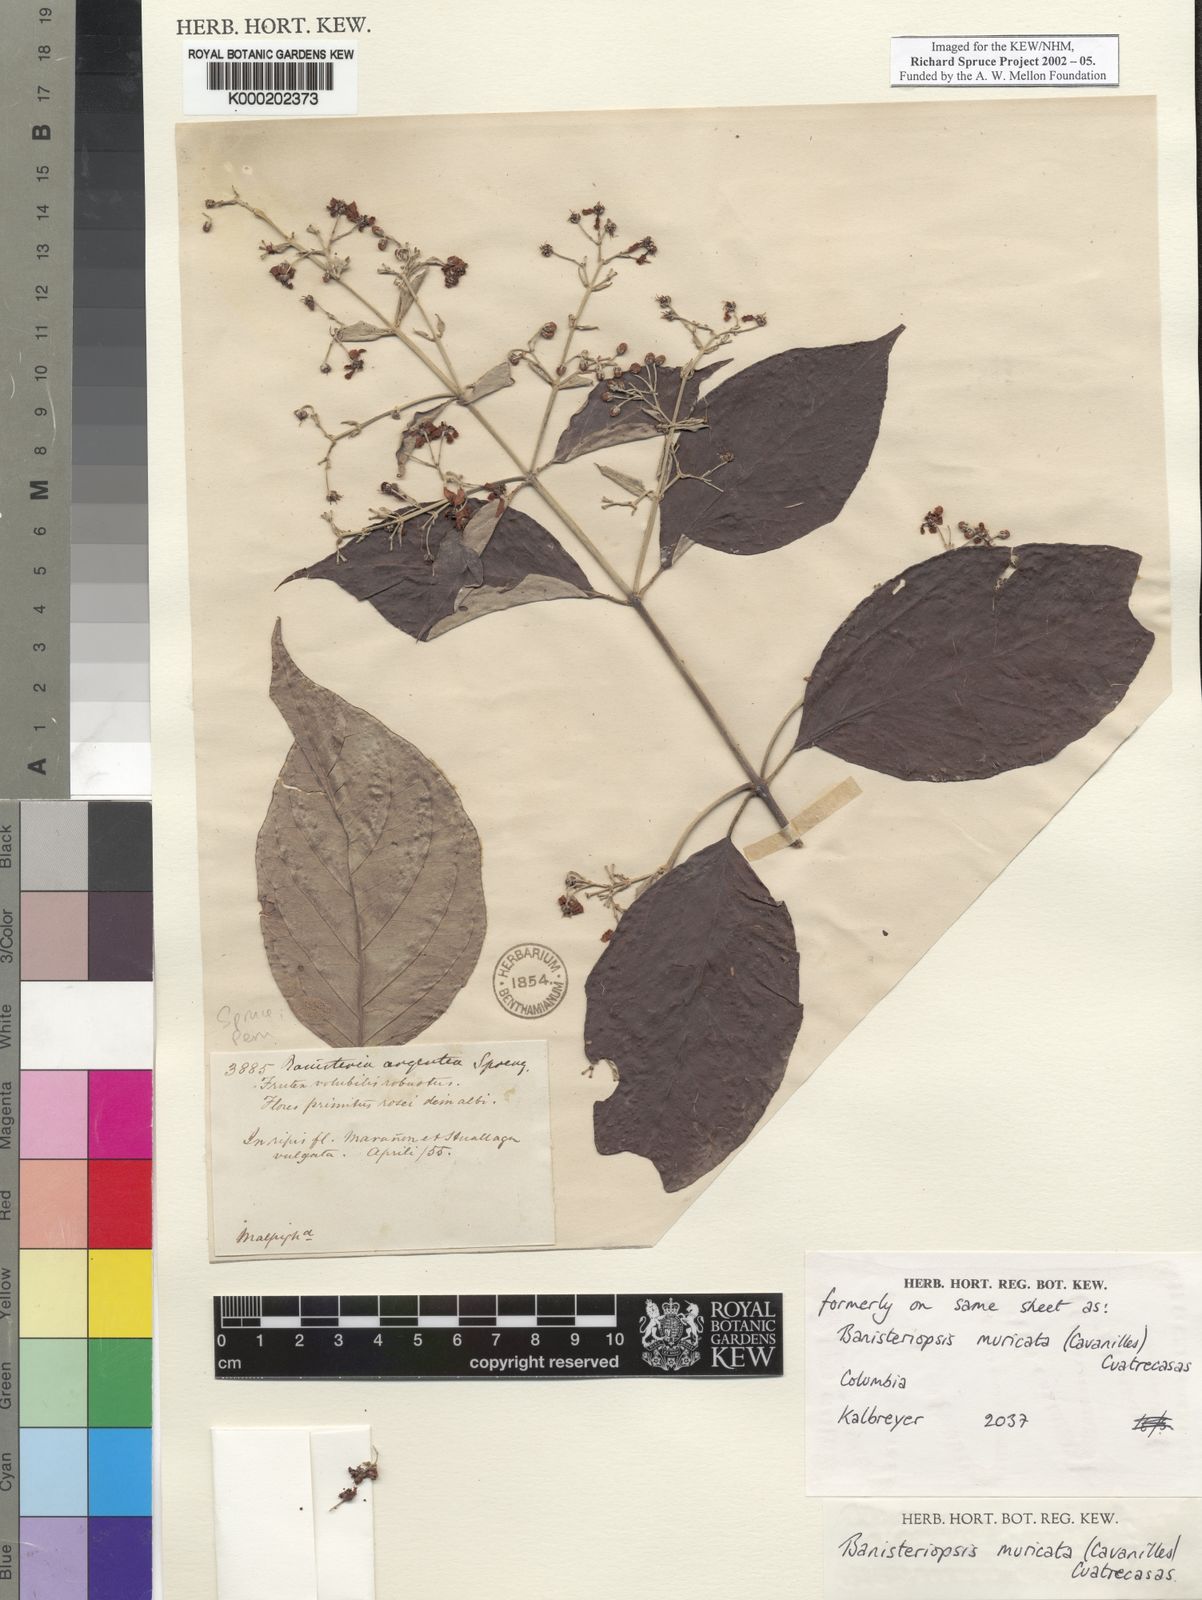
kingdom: Plantae
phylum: Tracheophyta
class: Magnoliopsida
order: Malpighiales
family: Malpighiaceae
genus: Banisteriopsis
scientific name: Banisteriopsis muricata
